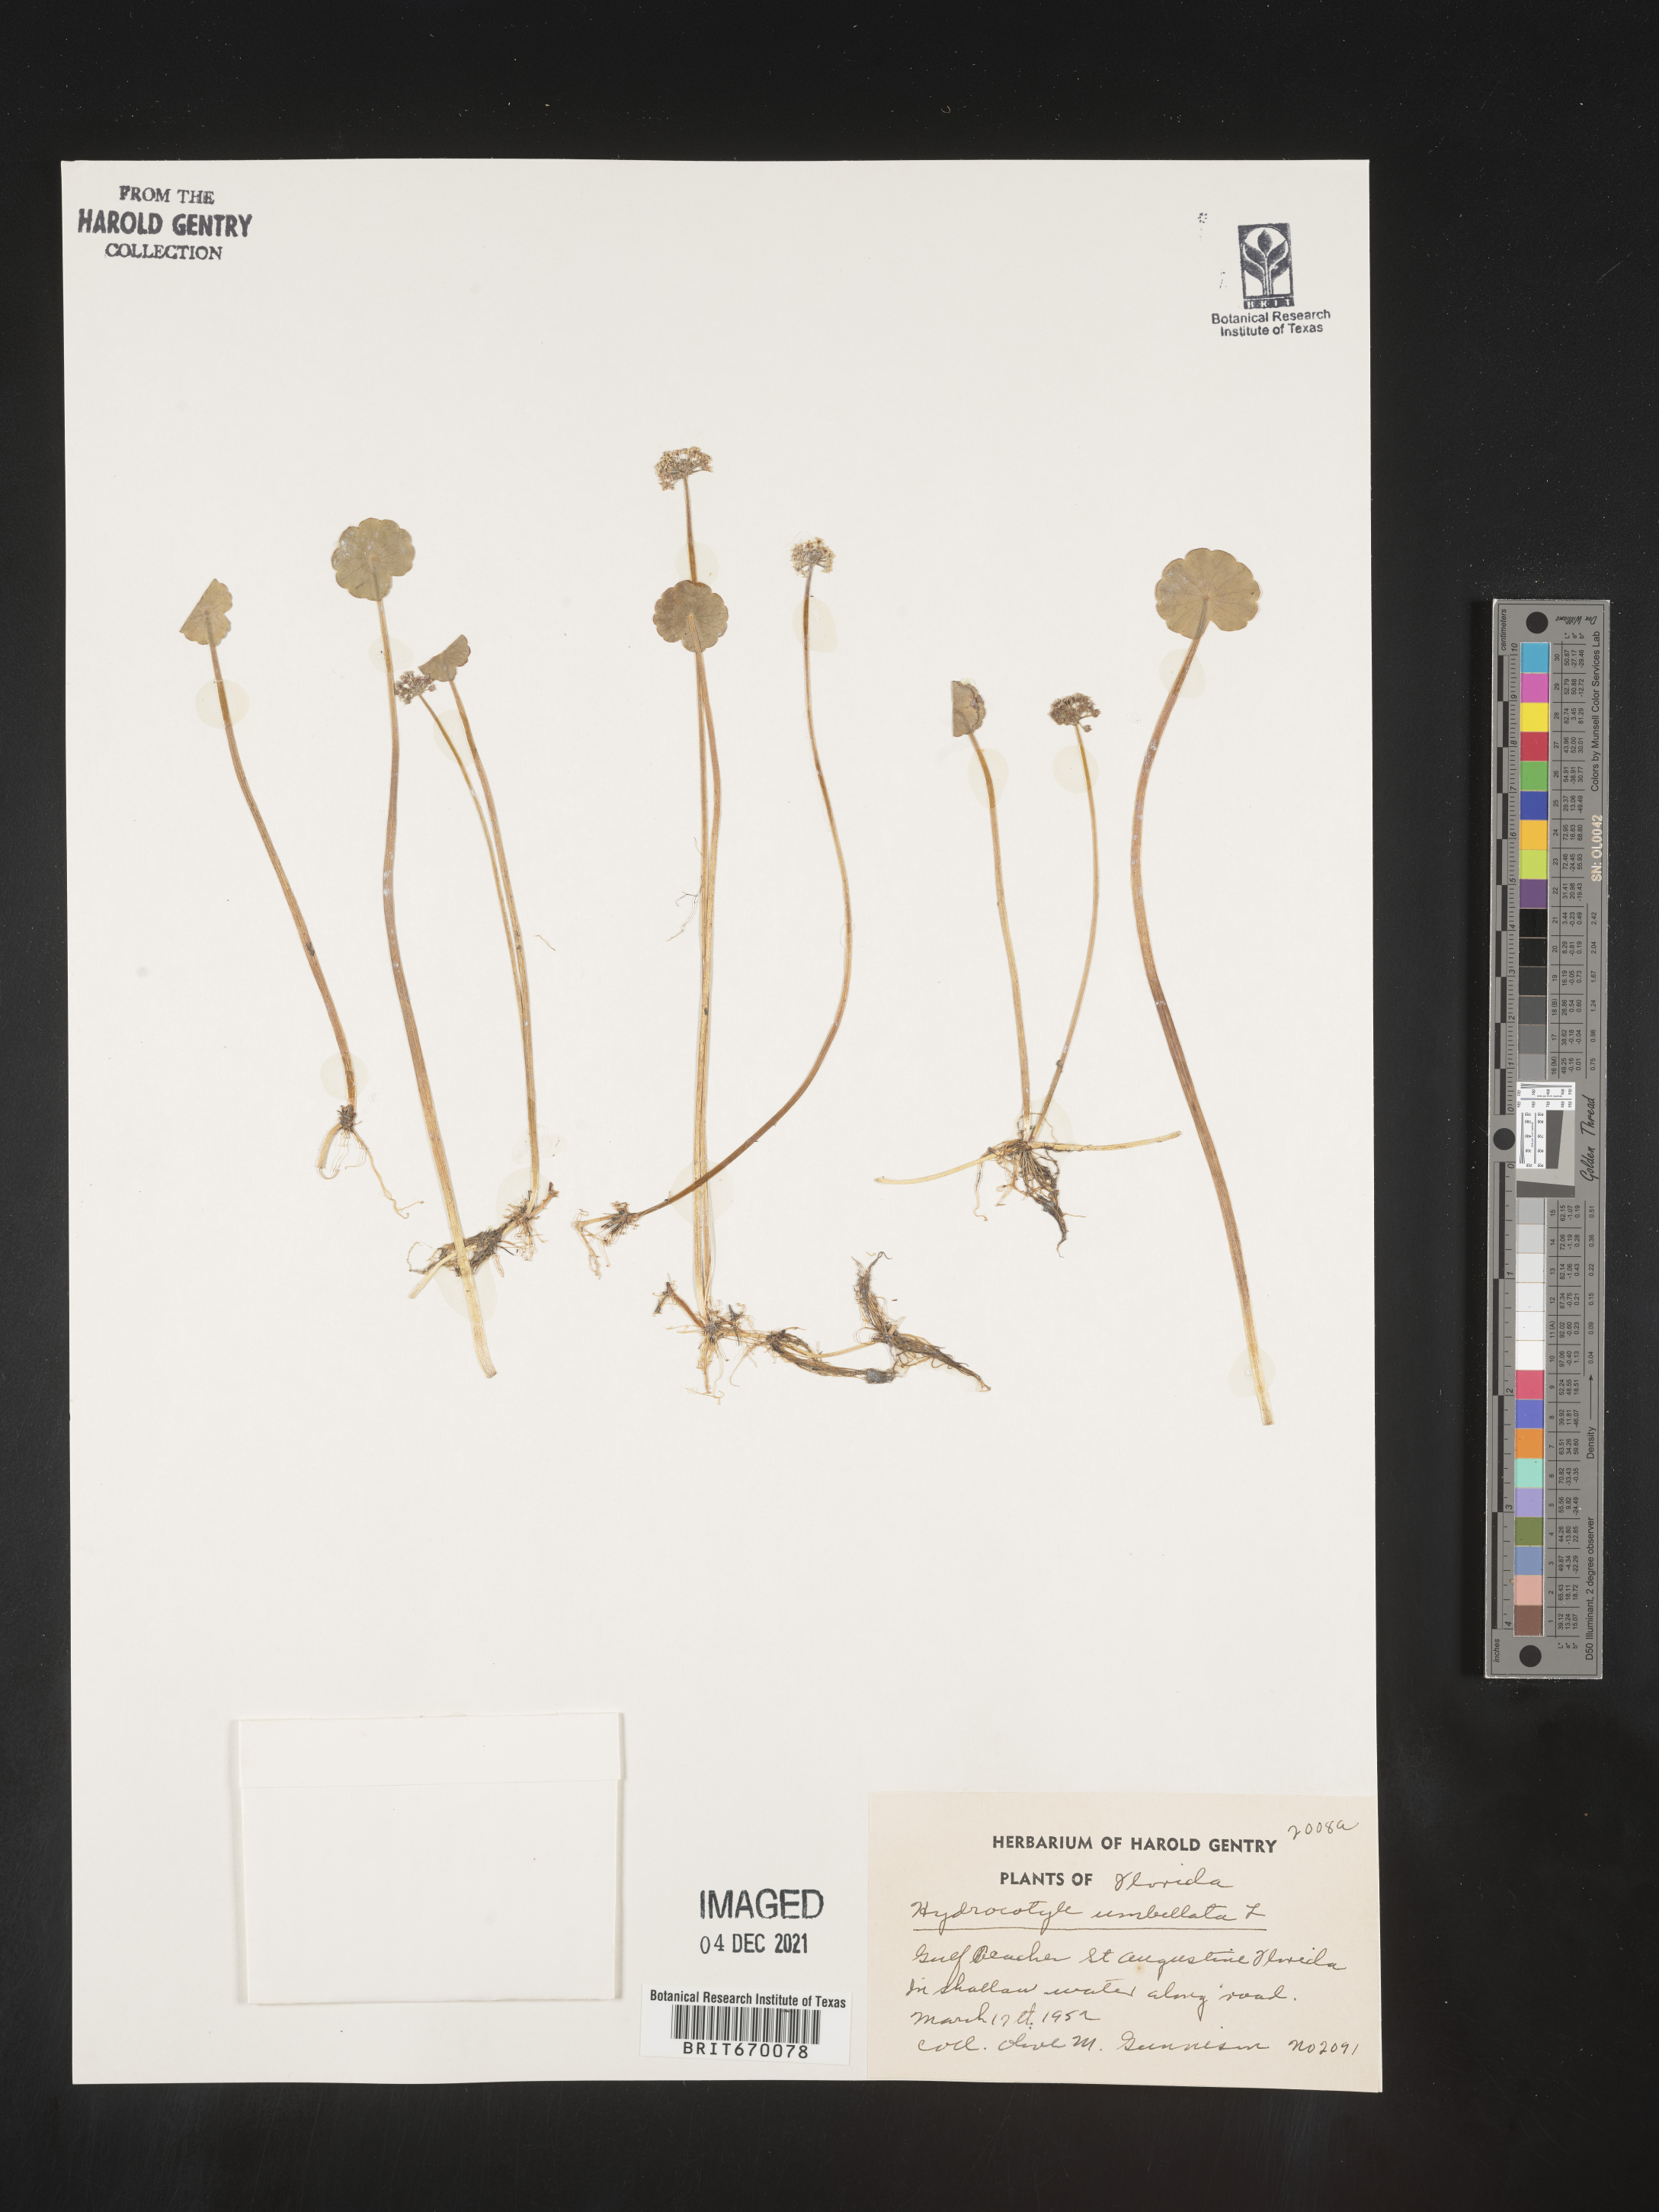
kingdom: Plantae
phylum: Tracheophyta
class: Magnoliopsida
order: Apiales
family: Araliaceae
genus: Hydrocotyle
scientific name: Hydrocotyle umbellata
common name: Water pennywort
